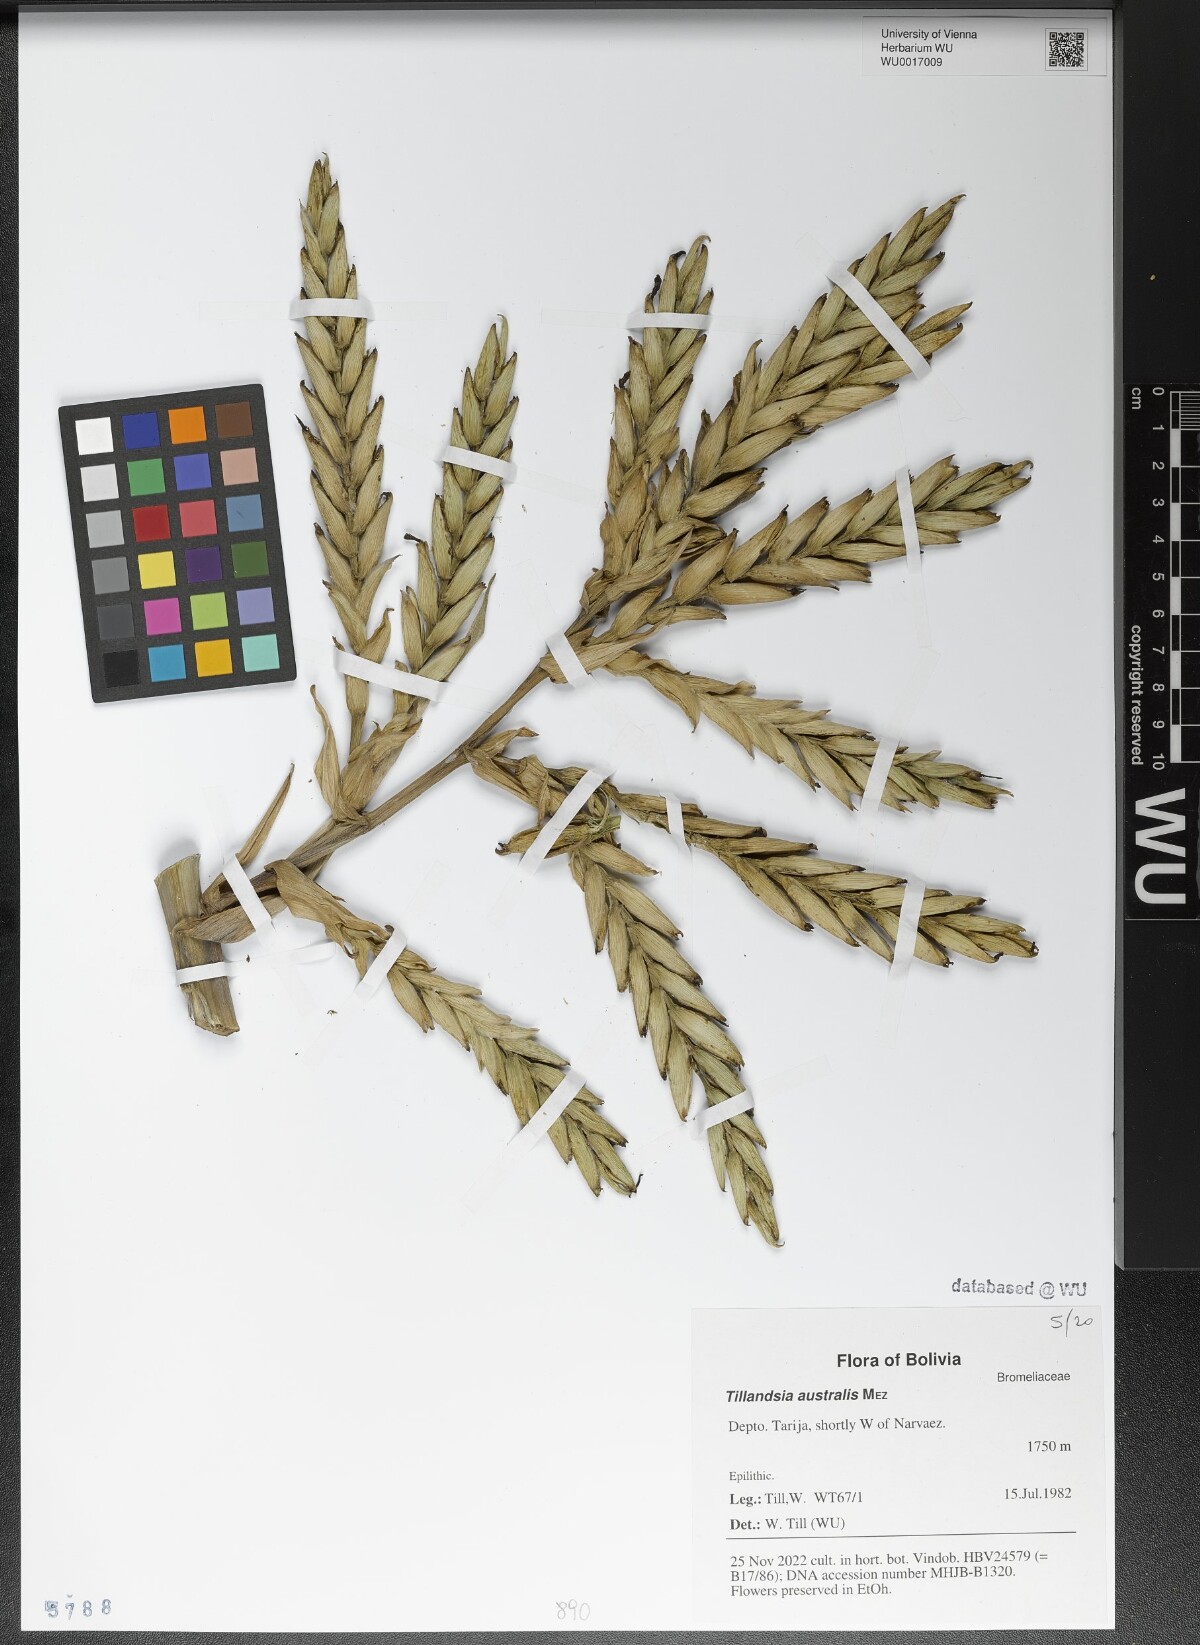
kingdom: Plantae
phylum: Tracheophyta
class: Liliopsida
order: Poales
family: Bromeliaceae
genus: Tillandsia
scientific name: Tillandsia australis
